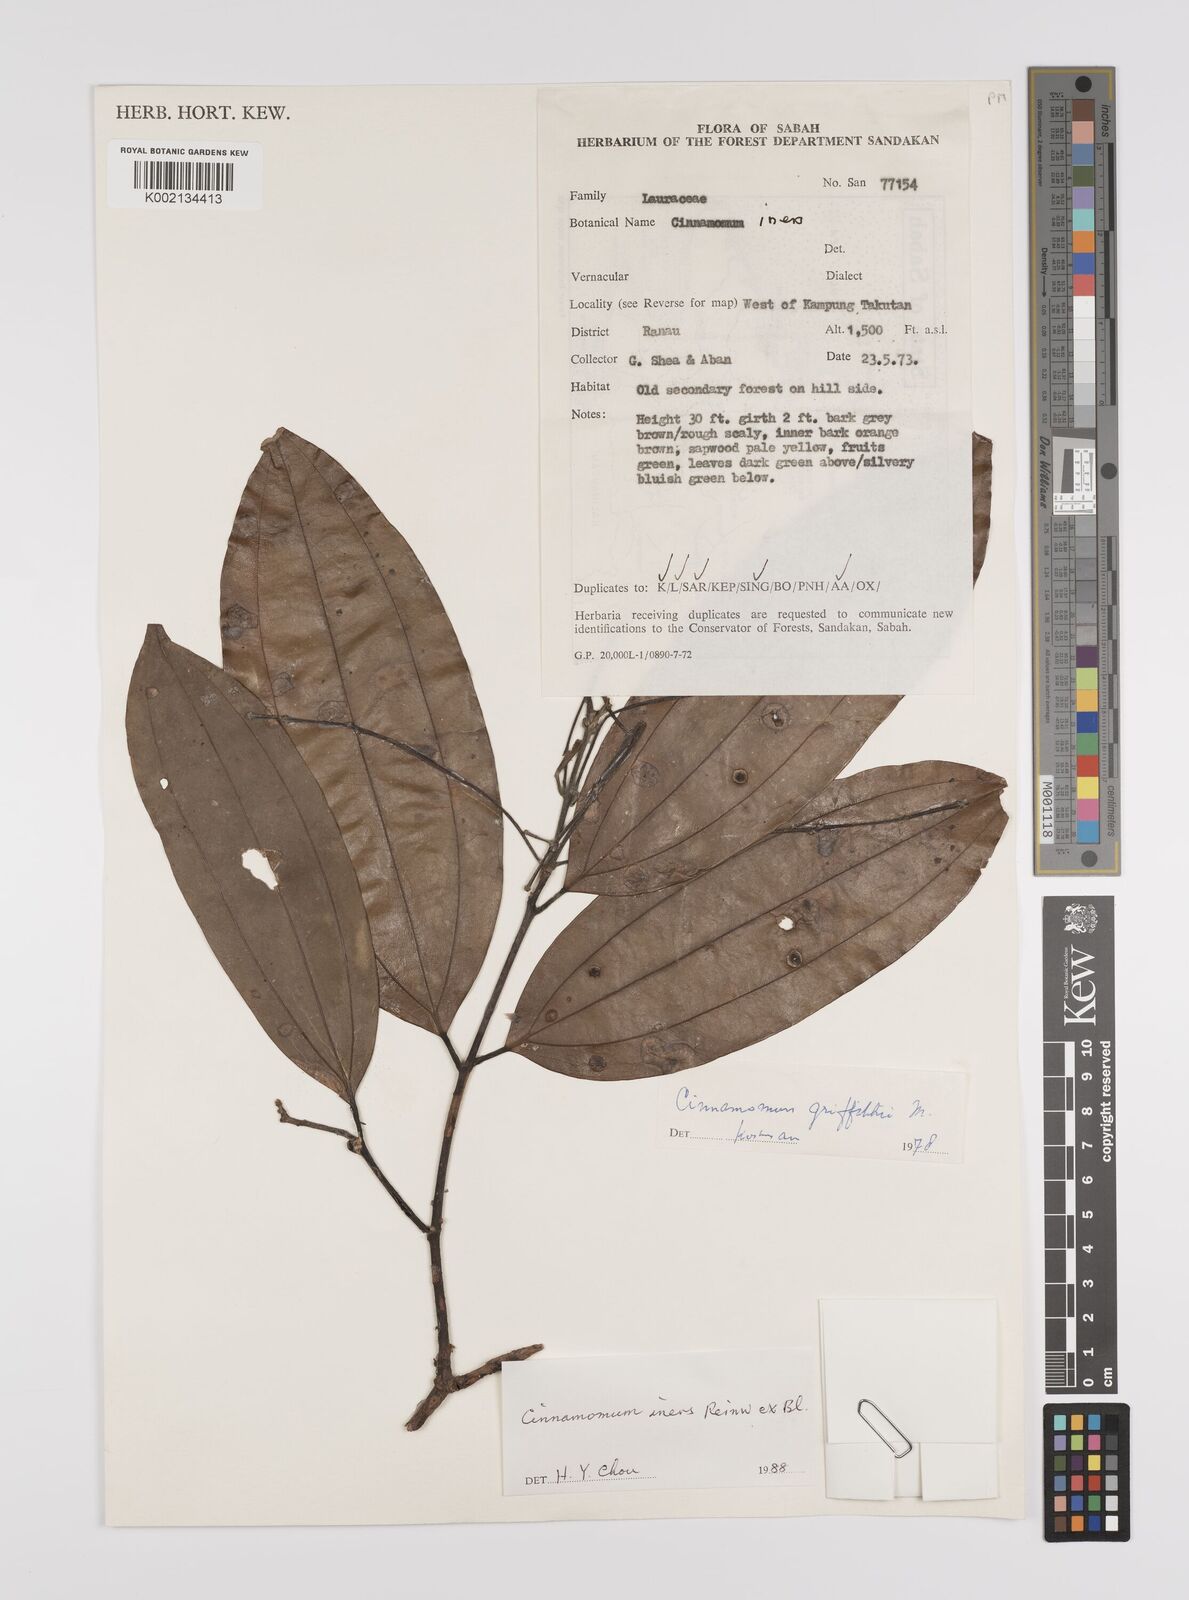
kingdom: Plantae
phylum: Tracheophyta
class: Magnoliopsida
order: Laurales
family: Lauraceae
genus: Cinnamomum
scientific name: Cinnamomum iners
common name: Wild cinnamon
